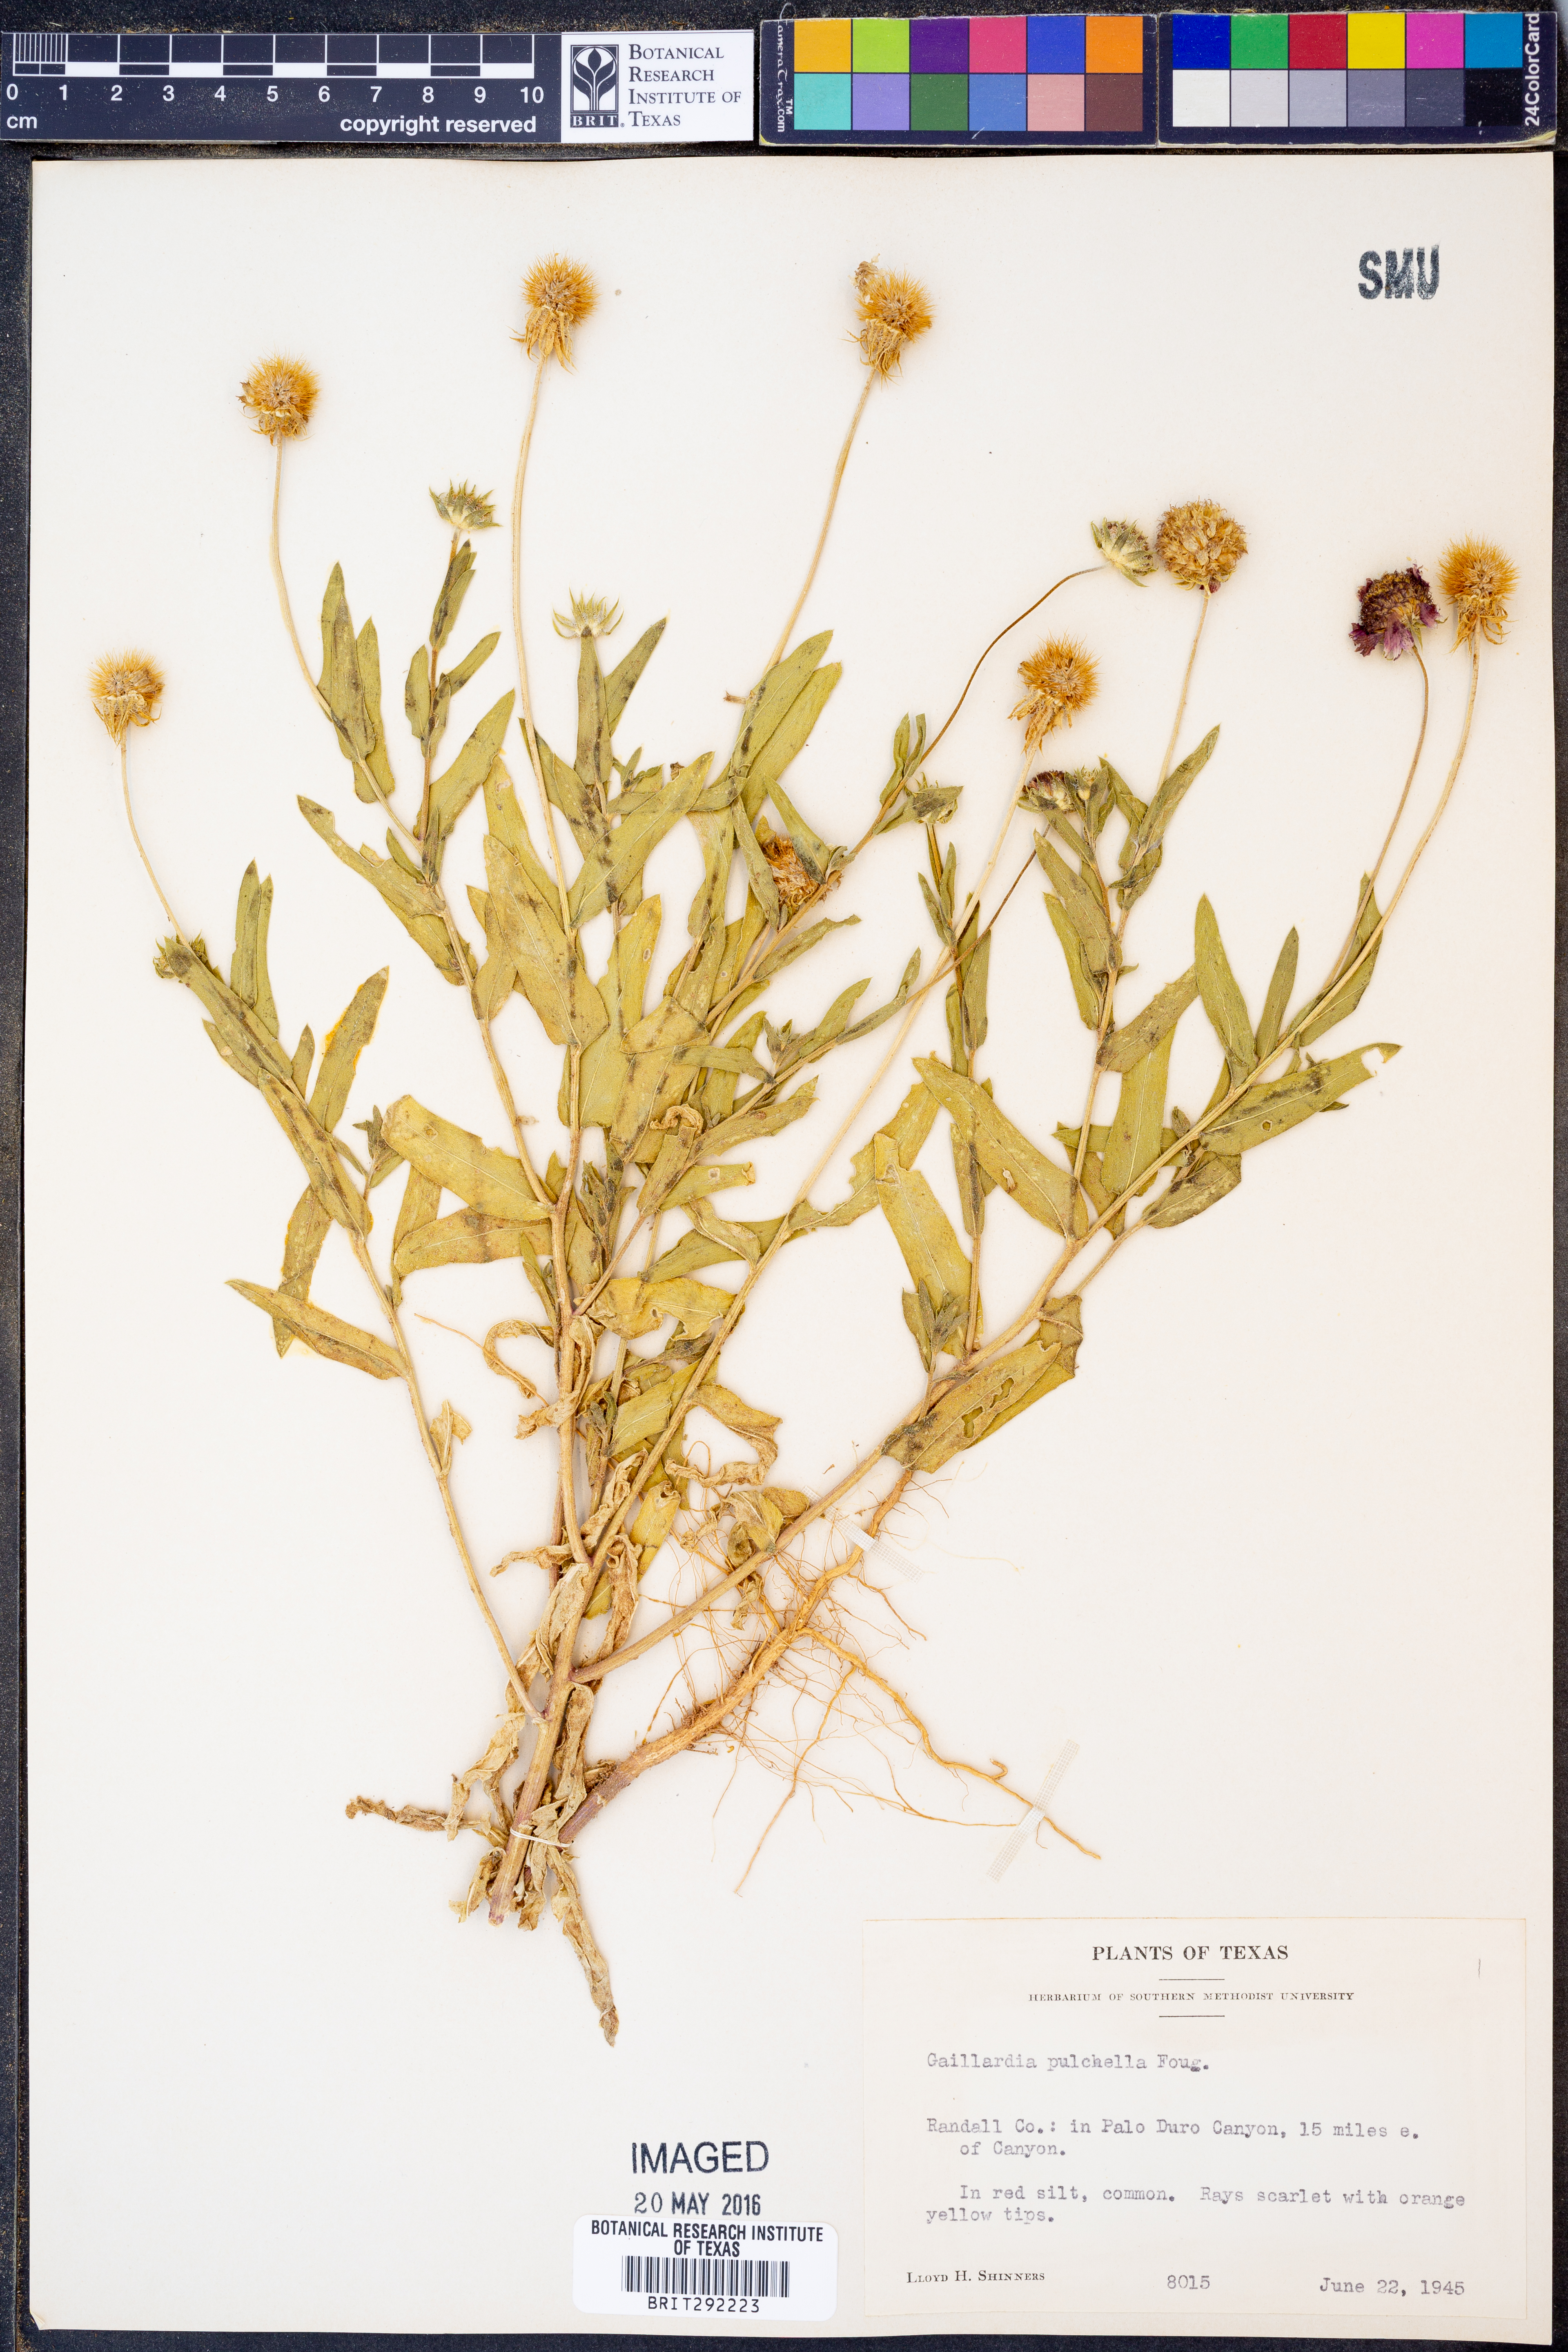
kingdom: Plantae
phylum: Tracheophyta
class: Magnoliopsida
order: Asterales
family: Asteraceae
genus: Gaillardia
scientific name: Gaillardia pulchella
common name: Firewheel
